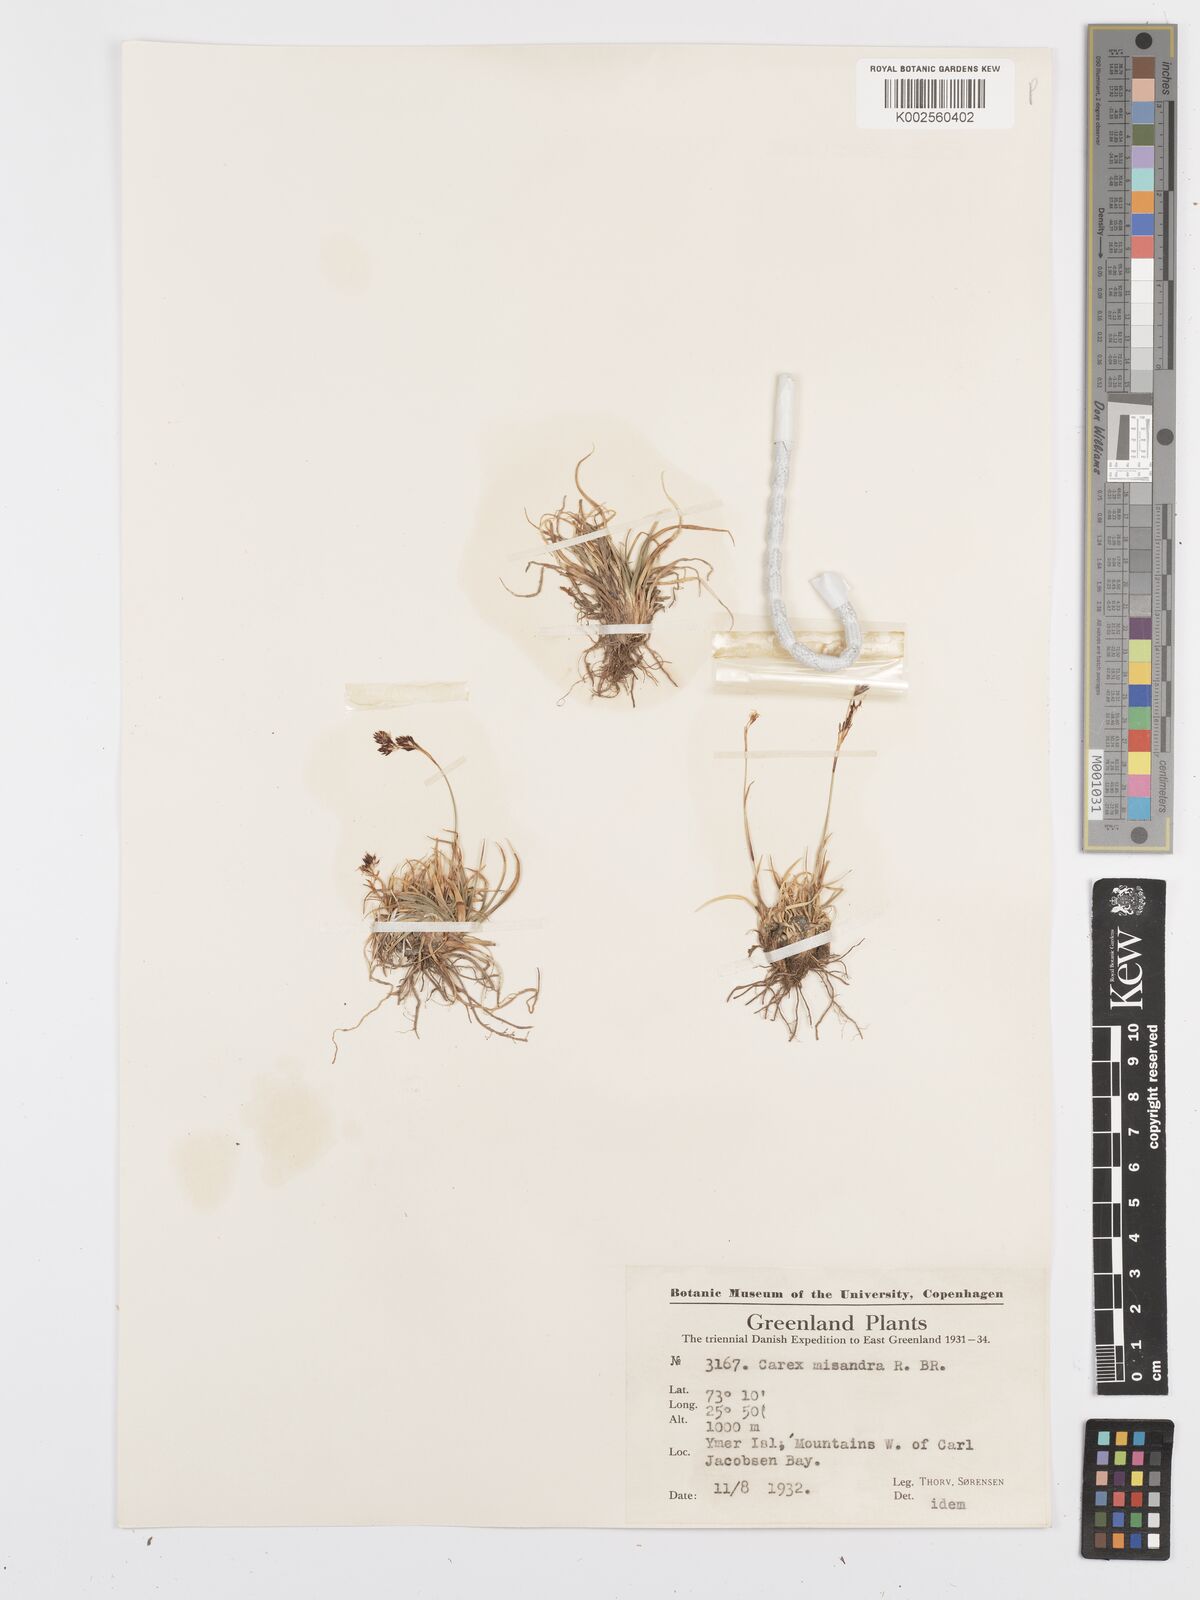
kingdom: Plantae
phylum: Tracheophyta
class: Liliopsida
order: Poales
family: Cyperaceae
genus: Carex
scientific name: Carex fuliginosa
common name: Few-flowered sedge
